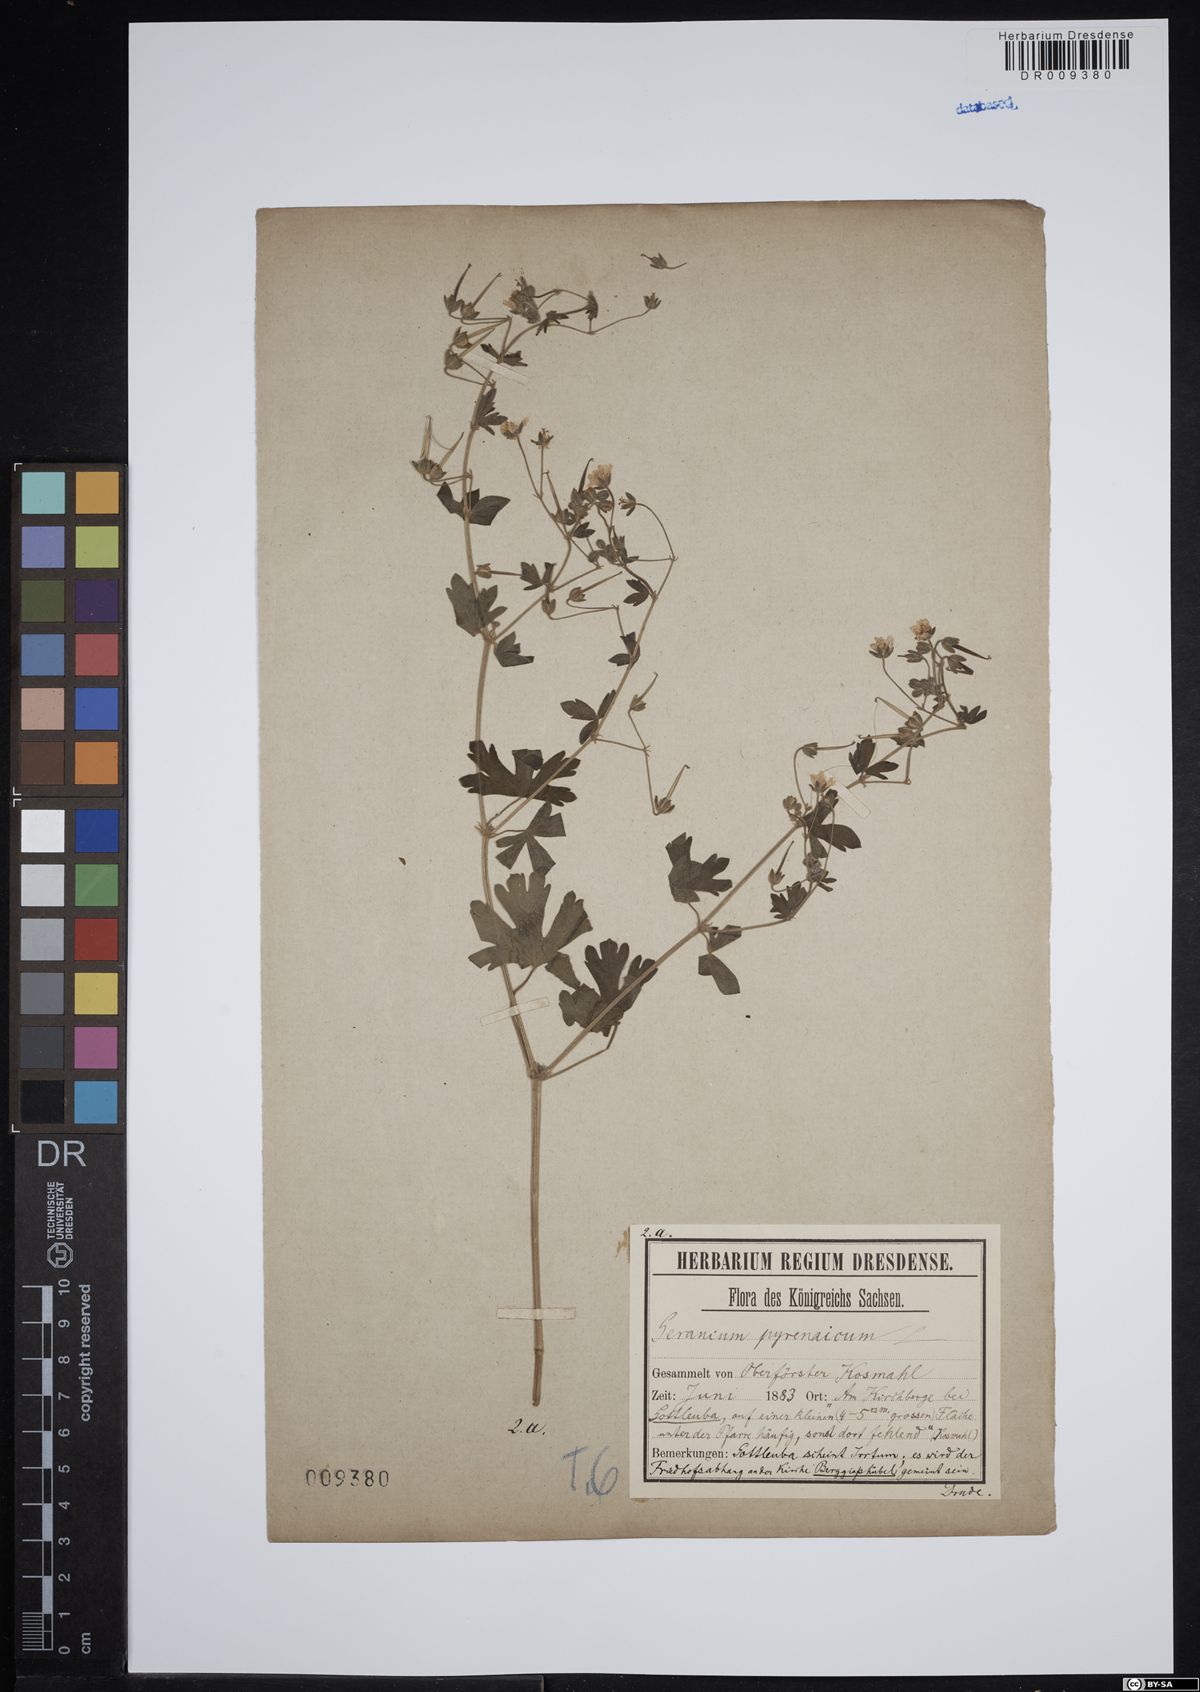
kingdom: Plantae
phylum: Tracheophyta
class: Magnoliopsida
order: Geraniales
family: Geraniaceae
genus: Geranium
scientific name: Geranium pyrenaicum
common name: Hedgerow crane's-bill
